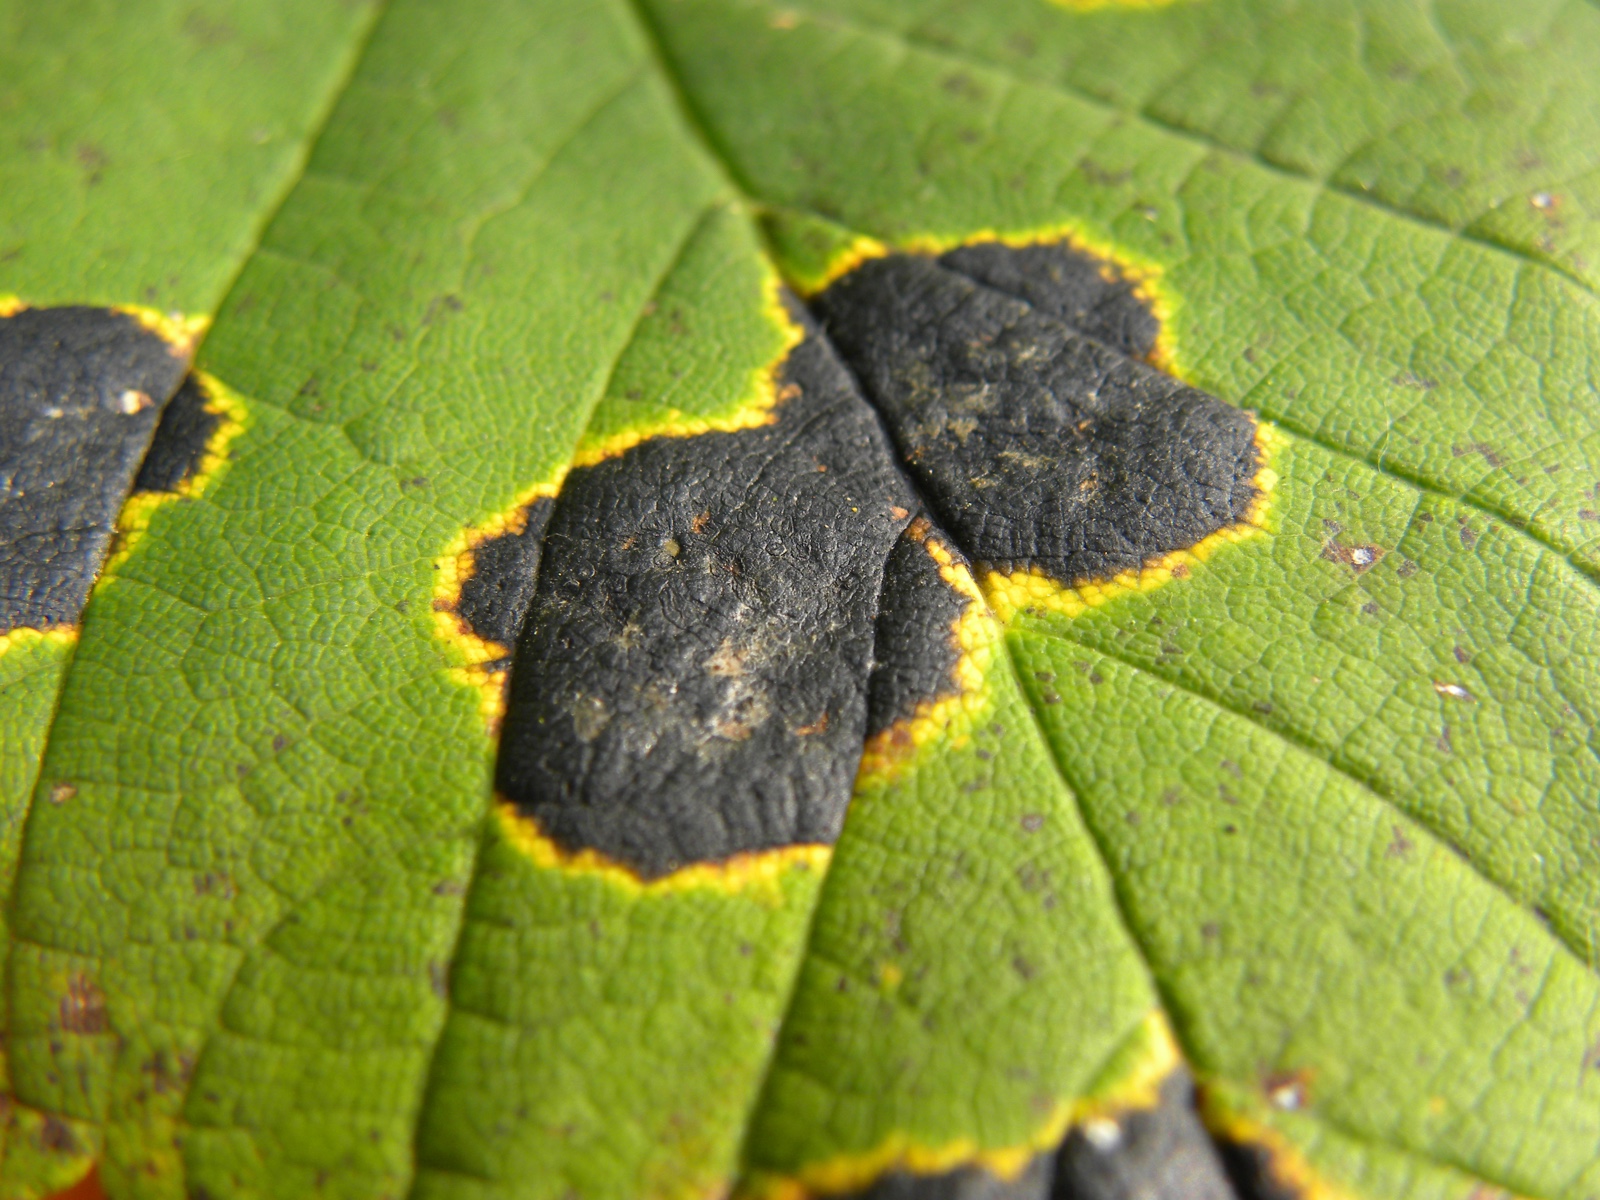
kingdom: Fungi
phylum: Ascomycota
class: Leotiomycetes
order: Rhytismatales
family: Rhytismataceae
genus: Rhytisma
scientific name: Rhytisma acerinum
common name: ahorn-rynkeplet
